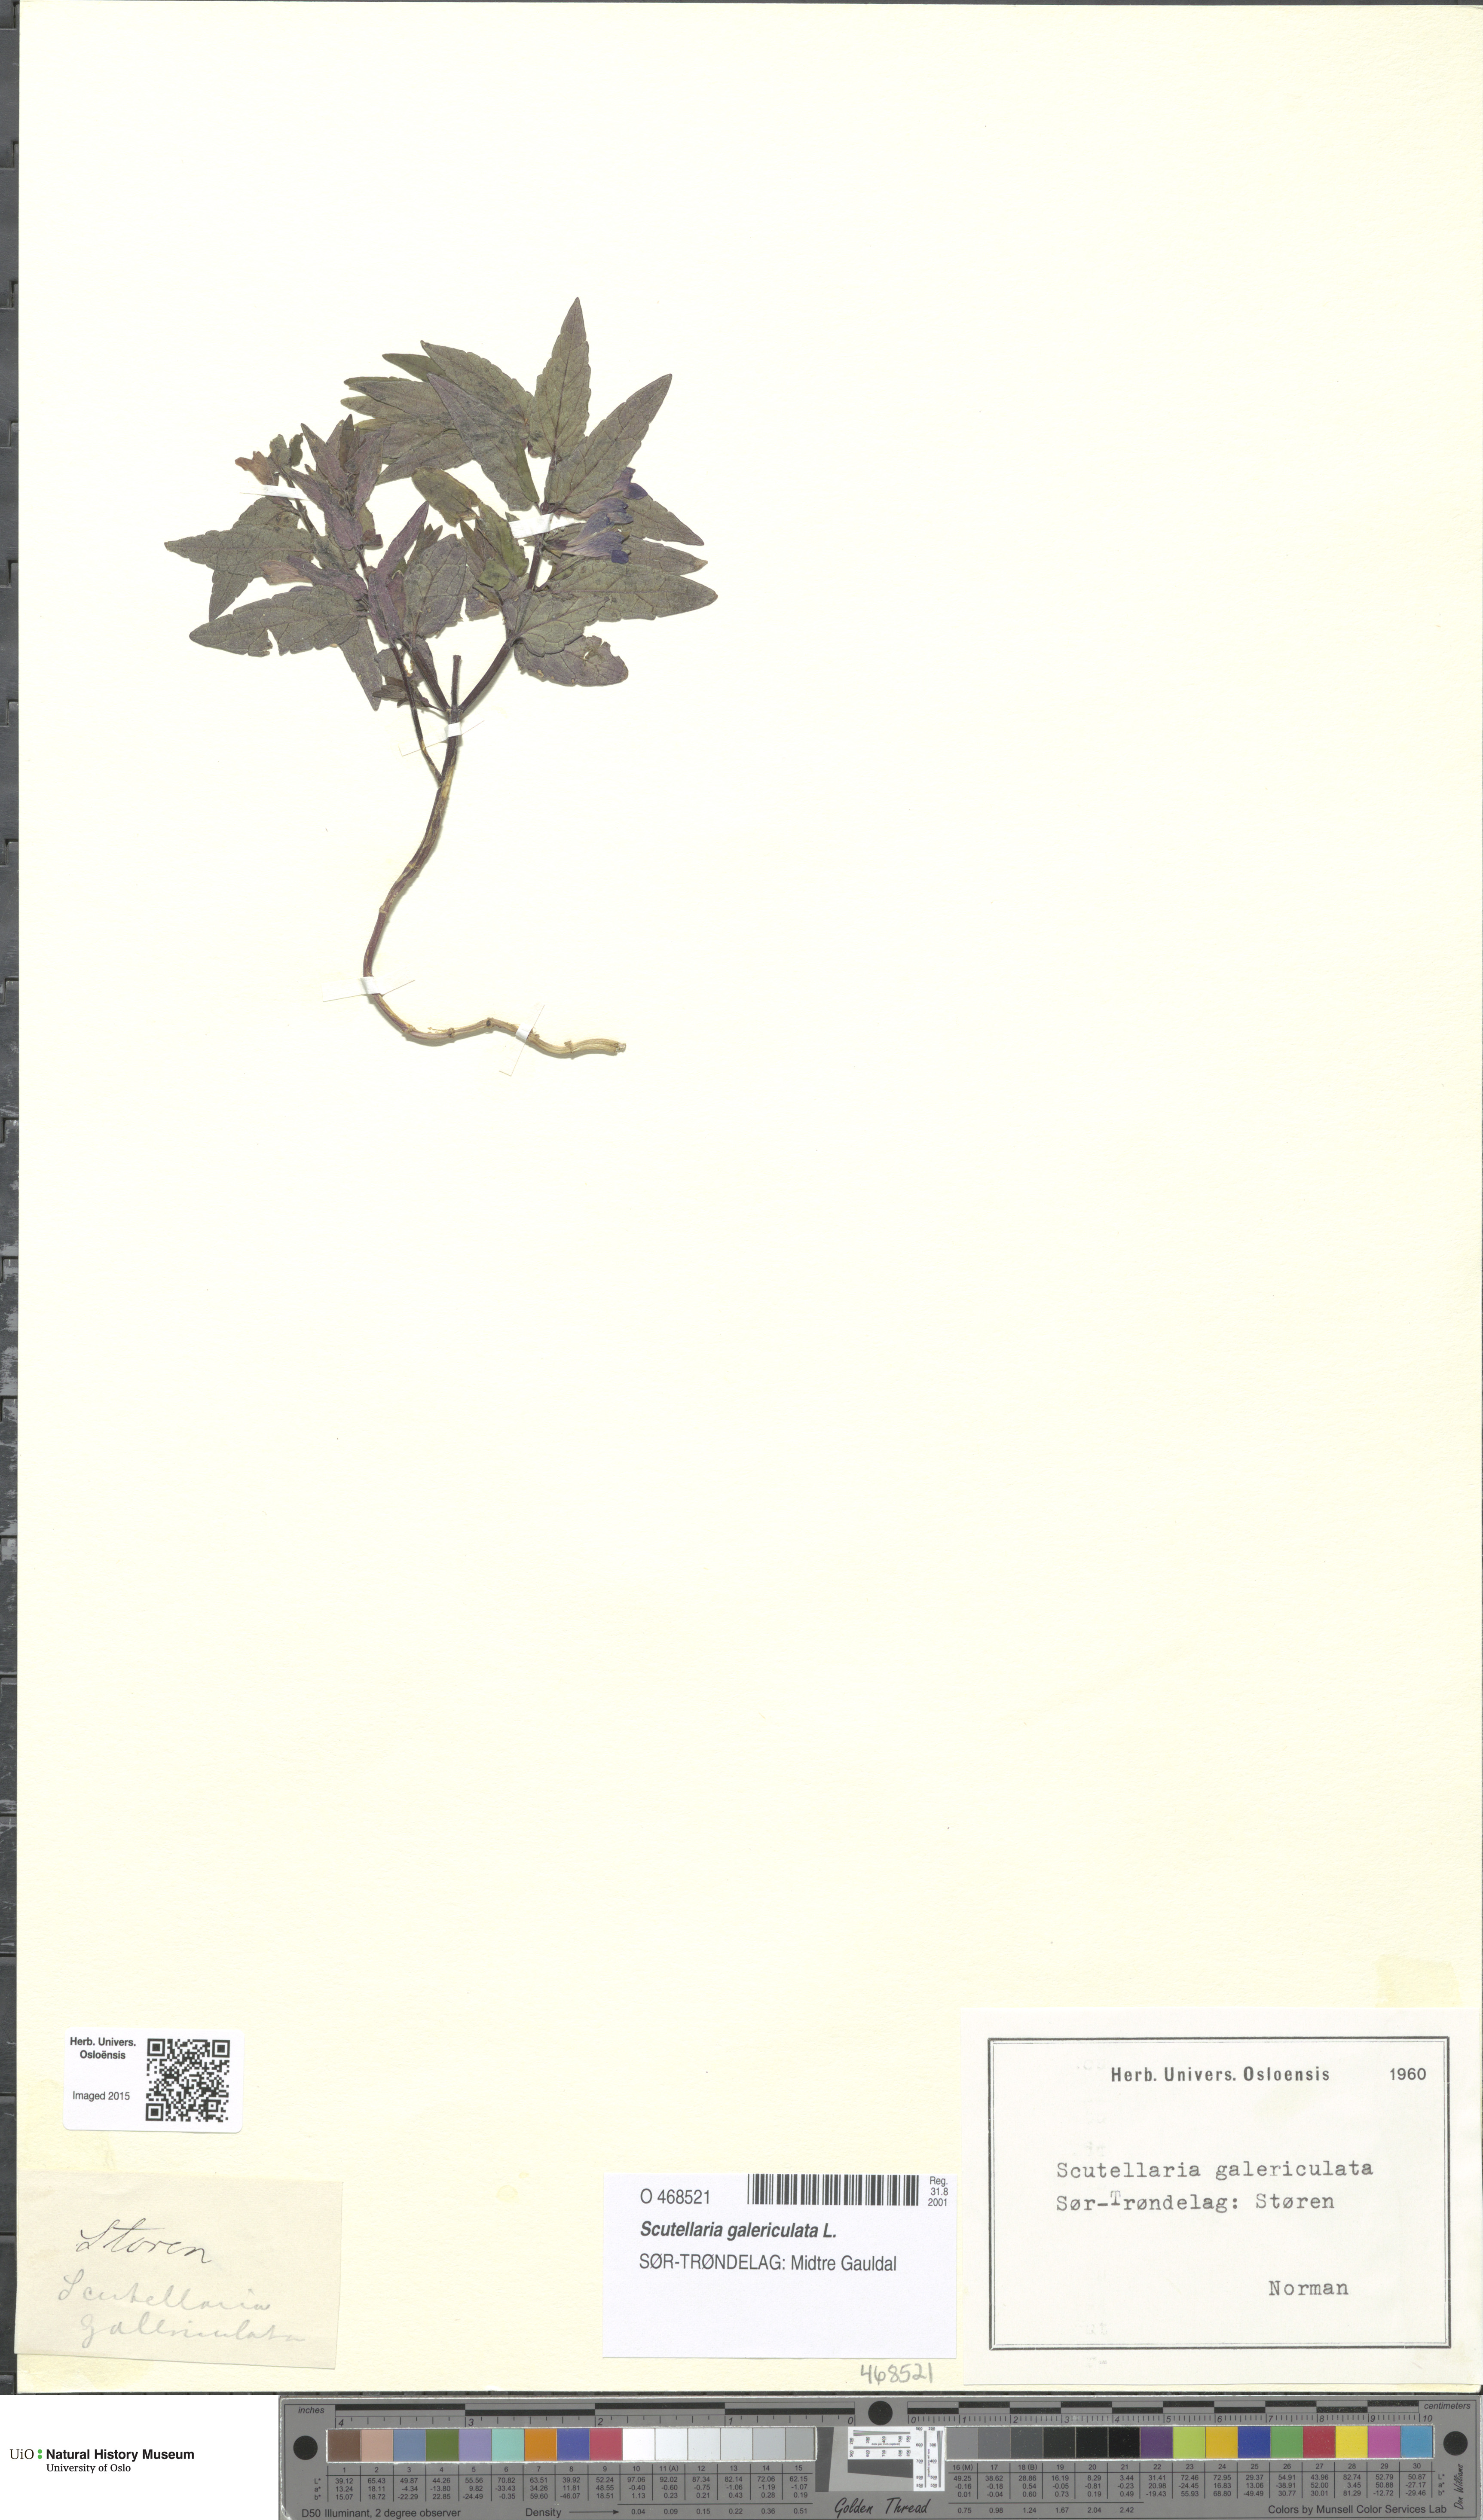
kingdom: Plantae
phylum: Tracheophyta
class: Magnoliopsida
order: Lamiales
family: Lamiaceae
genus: Scutellaria
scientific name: Scutellaria galericulata
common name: Skullcap
